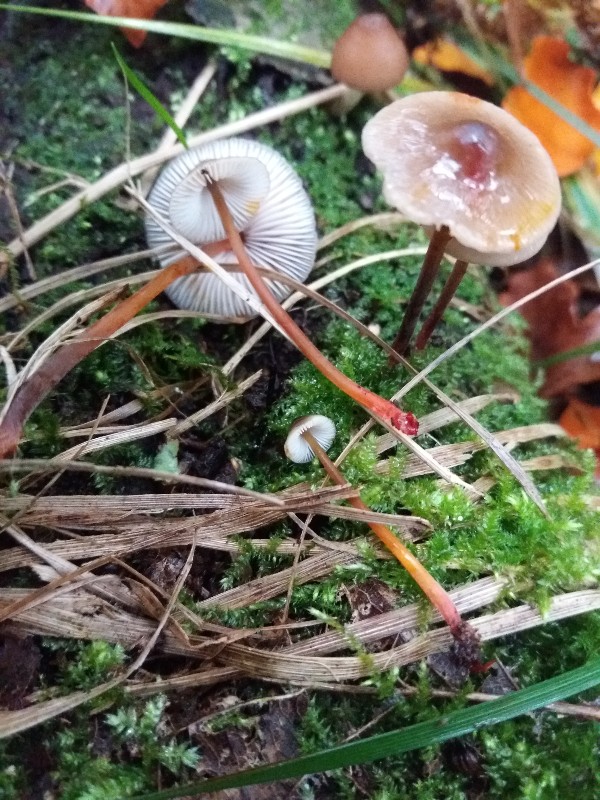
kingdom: Fungi
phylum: Basidiomycota
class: Agaricomycetes
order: Agaricales
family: Mycenaceae
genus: Mycena
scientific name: Mycena crocata
